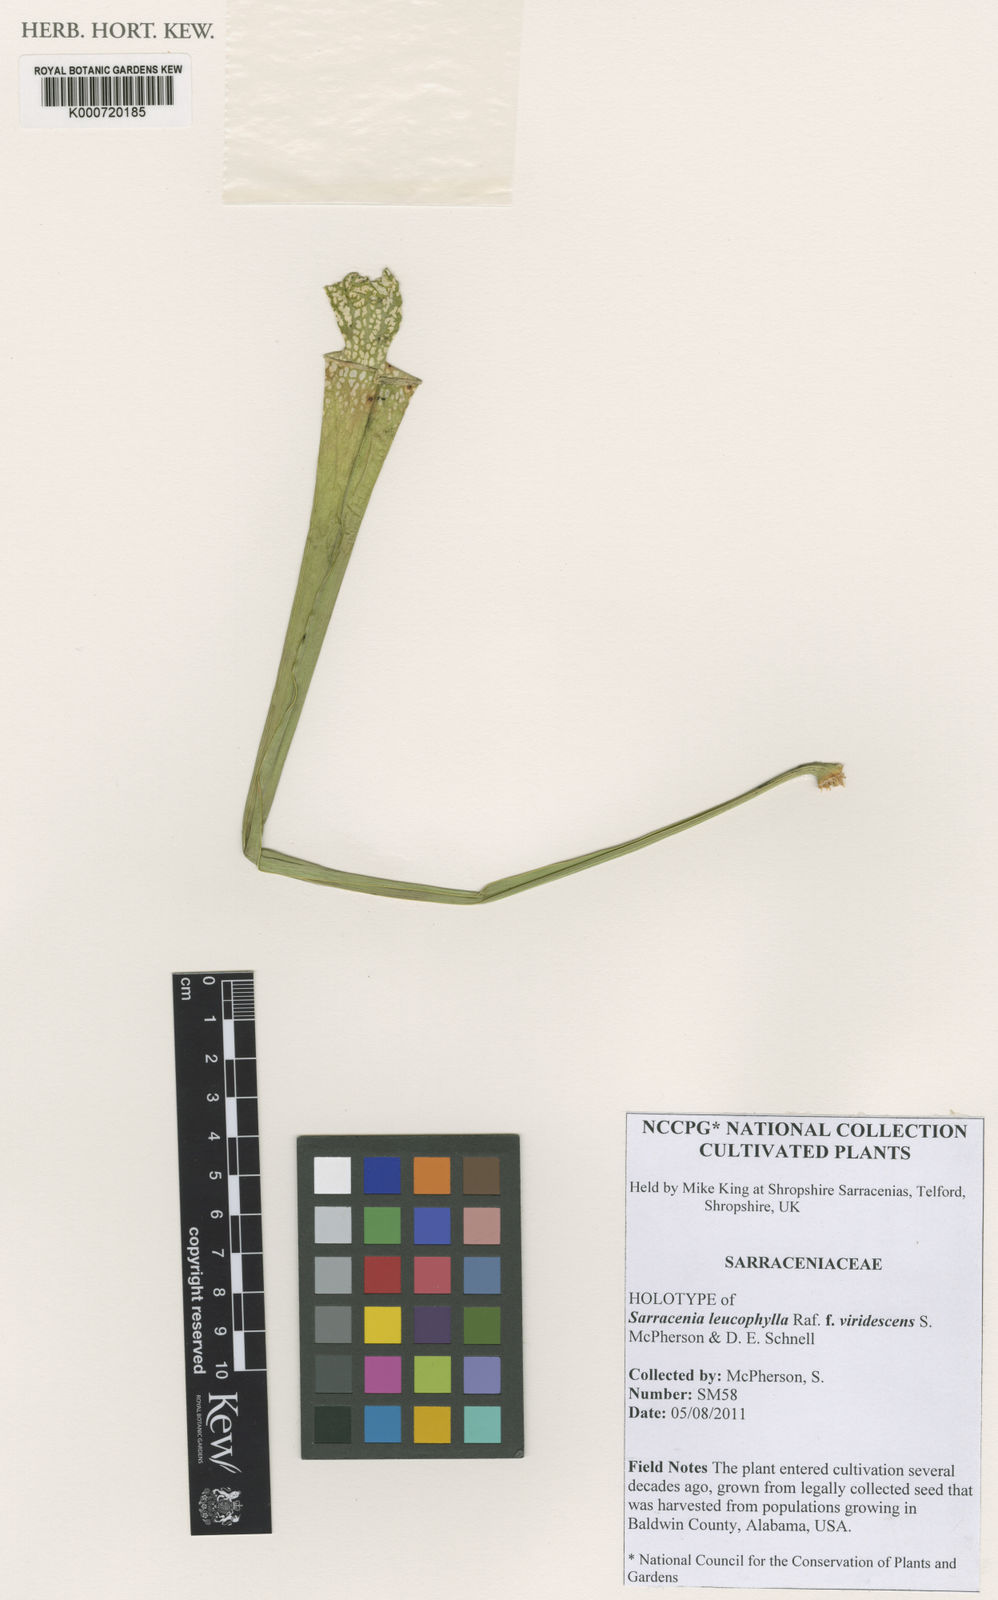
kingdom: Plantae
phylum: Tracheophyta
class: Magnoliopsida
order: Ericales
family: Sarraceniaceae
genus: Sarracenia
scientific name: Sarracenia leucophylla
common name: Purple trumpetleaf
